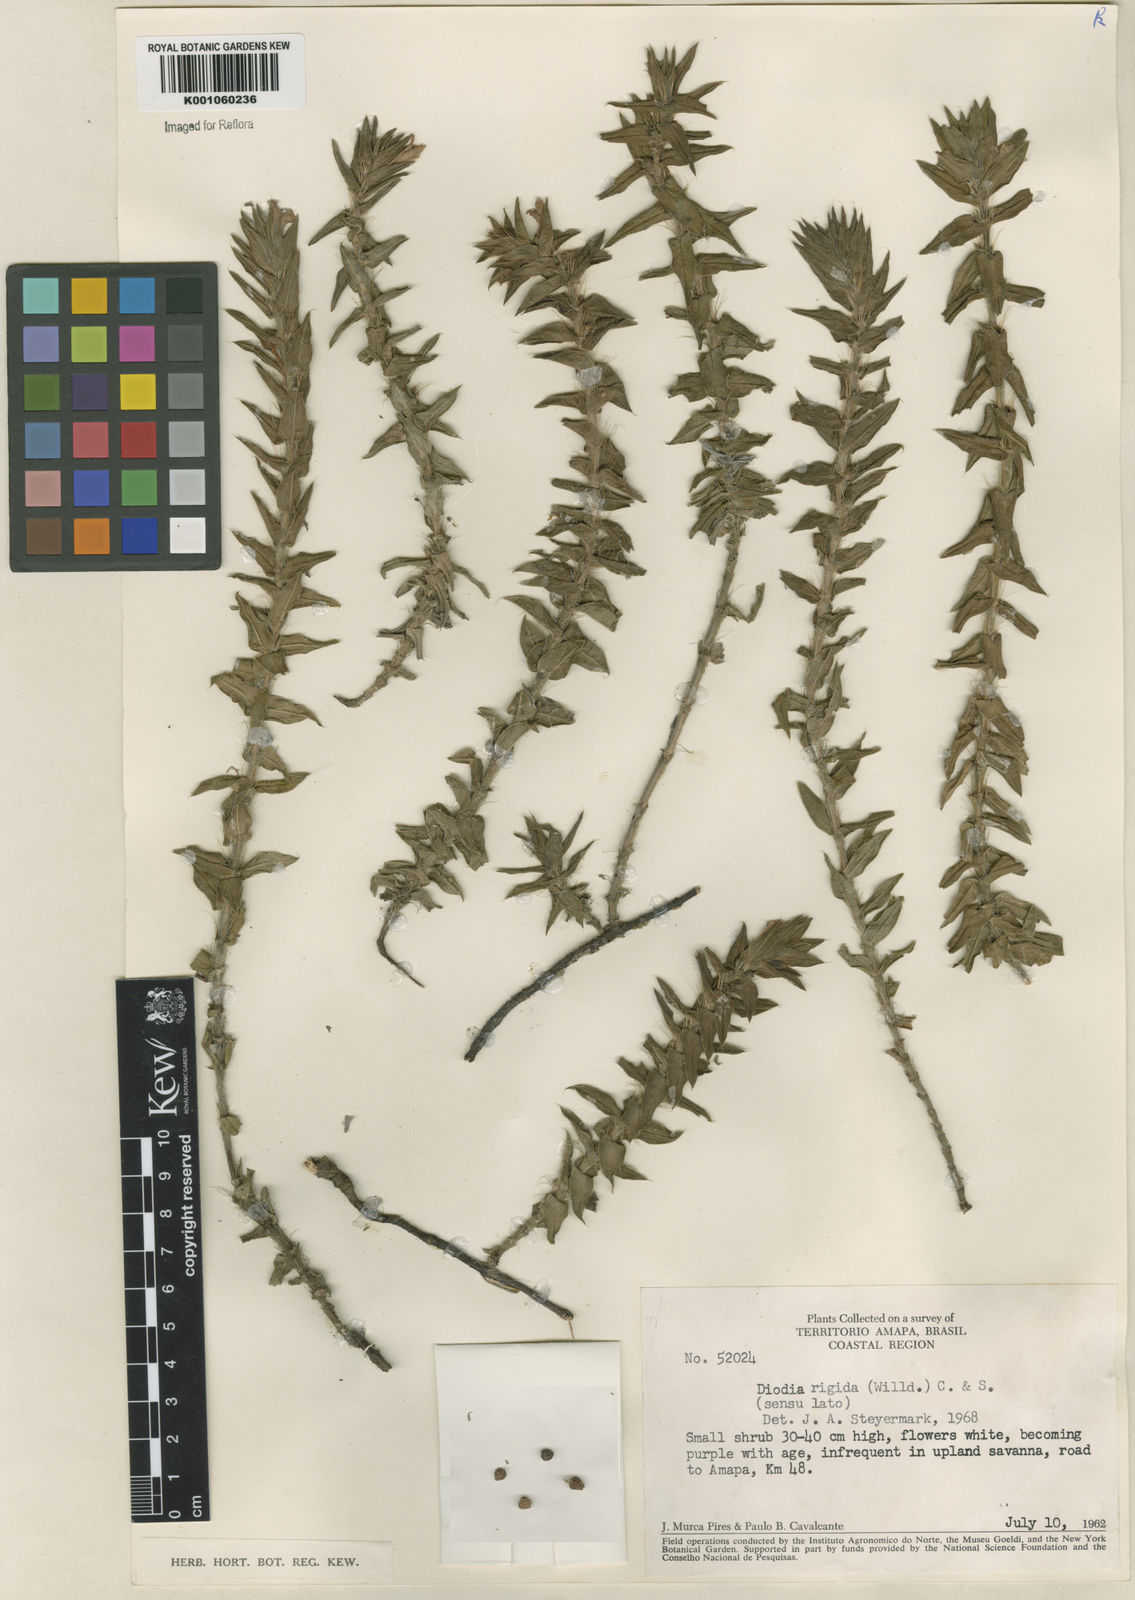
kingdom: Plantae
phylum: Tracheophyta
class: Magnoliopsida
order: Gentianales
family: Rubiaceae
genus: Hexasepalum
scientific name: Hexasepalum apiculatum
